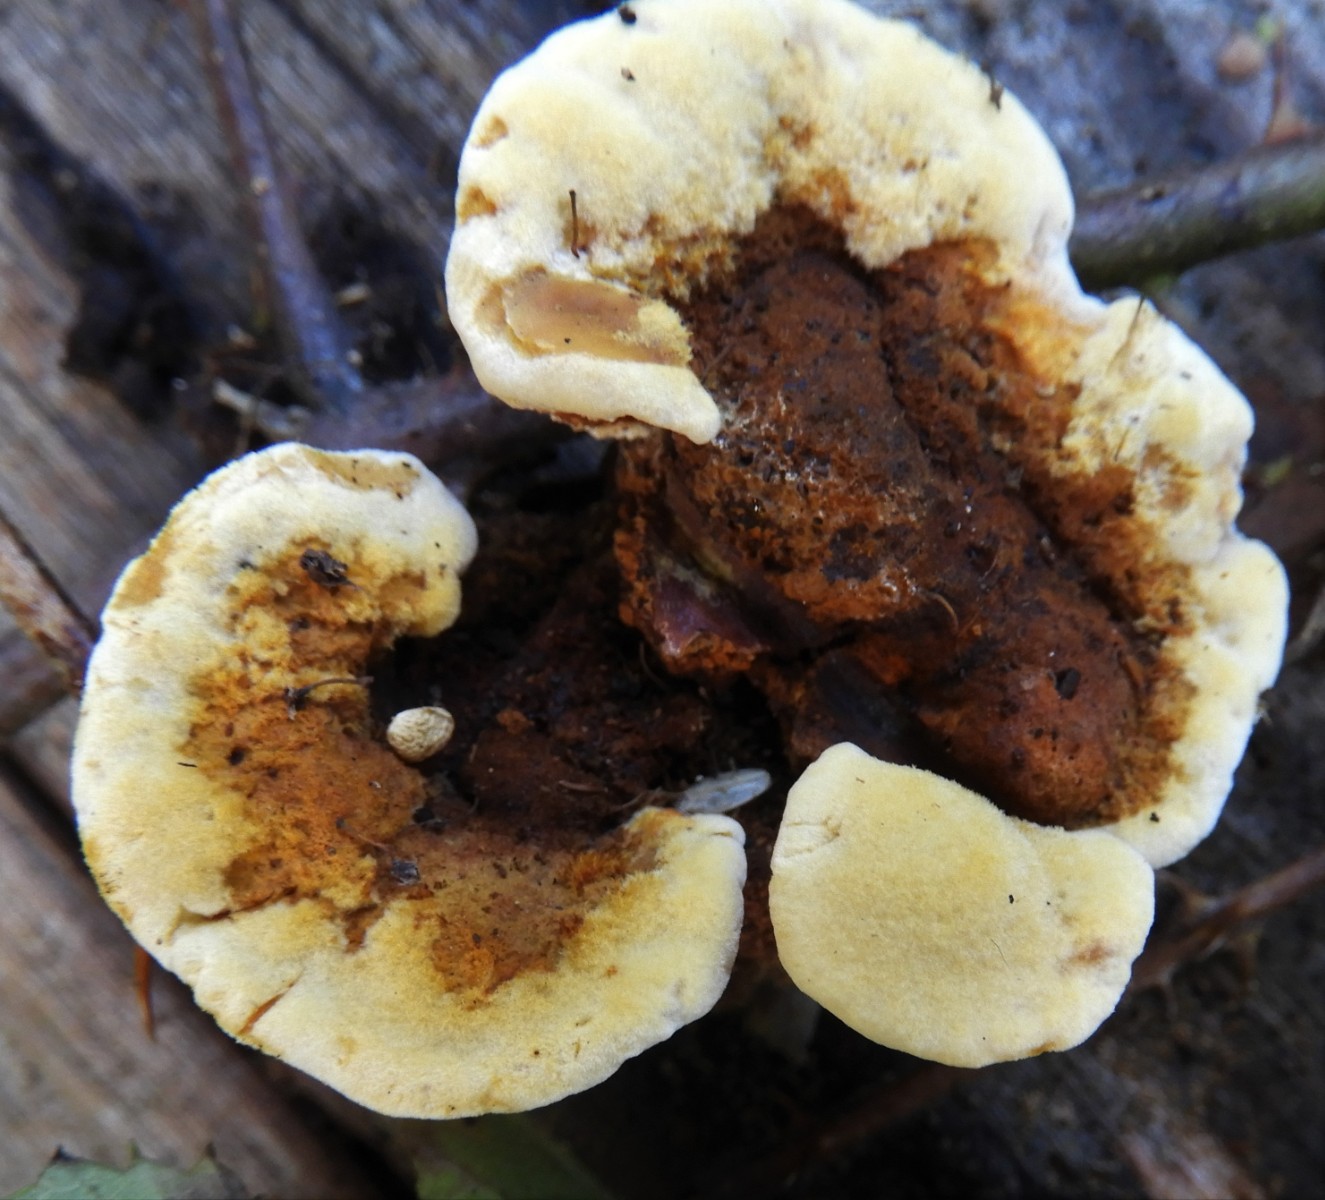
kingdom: Fungi
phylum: Basidiomycota
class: Agaricomycetes
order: Gloeophyllales
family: Gloeophyllaceae
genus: Gloeophyllum
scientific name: Gloeophyllum sepiarium
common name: fyrre-korkhat
